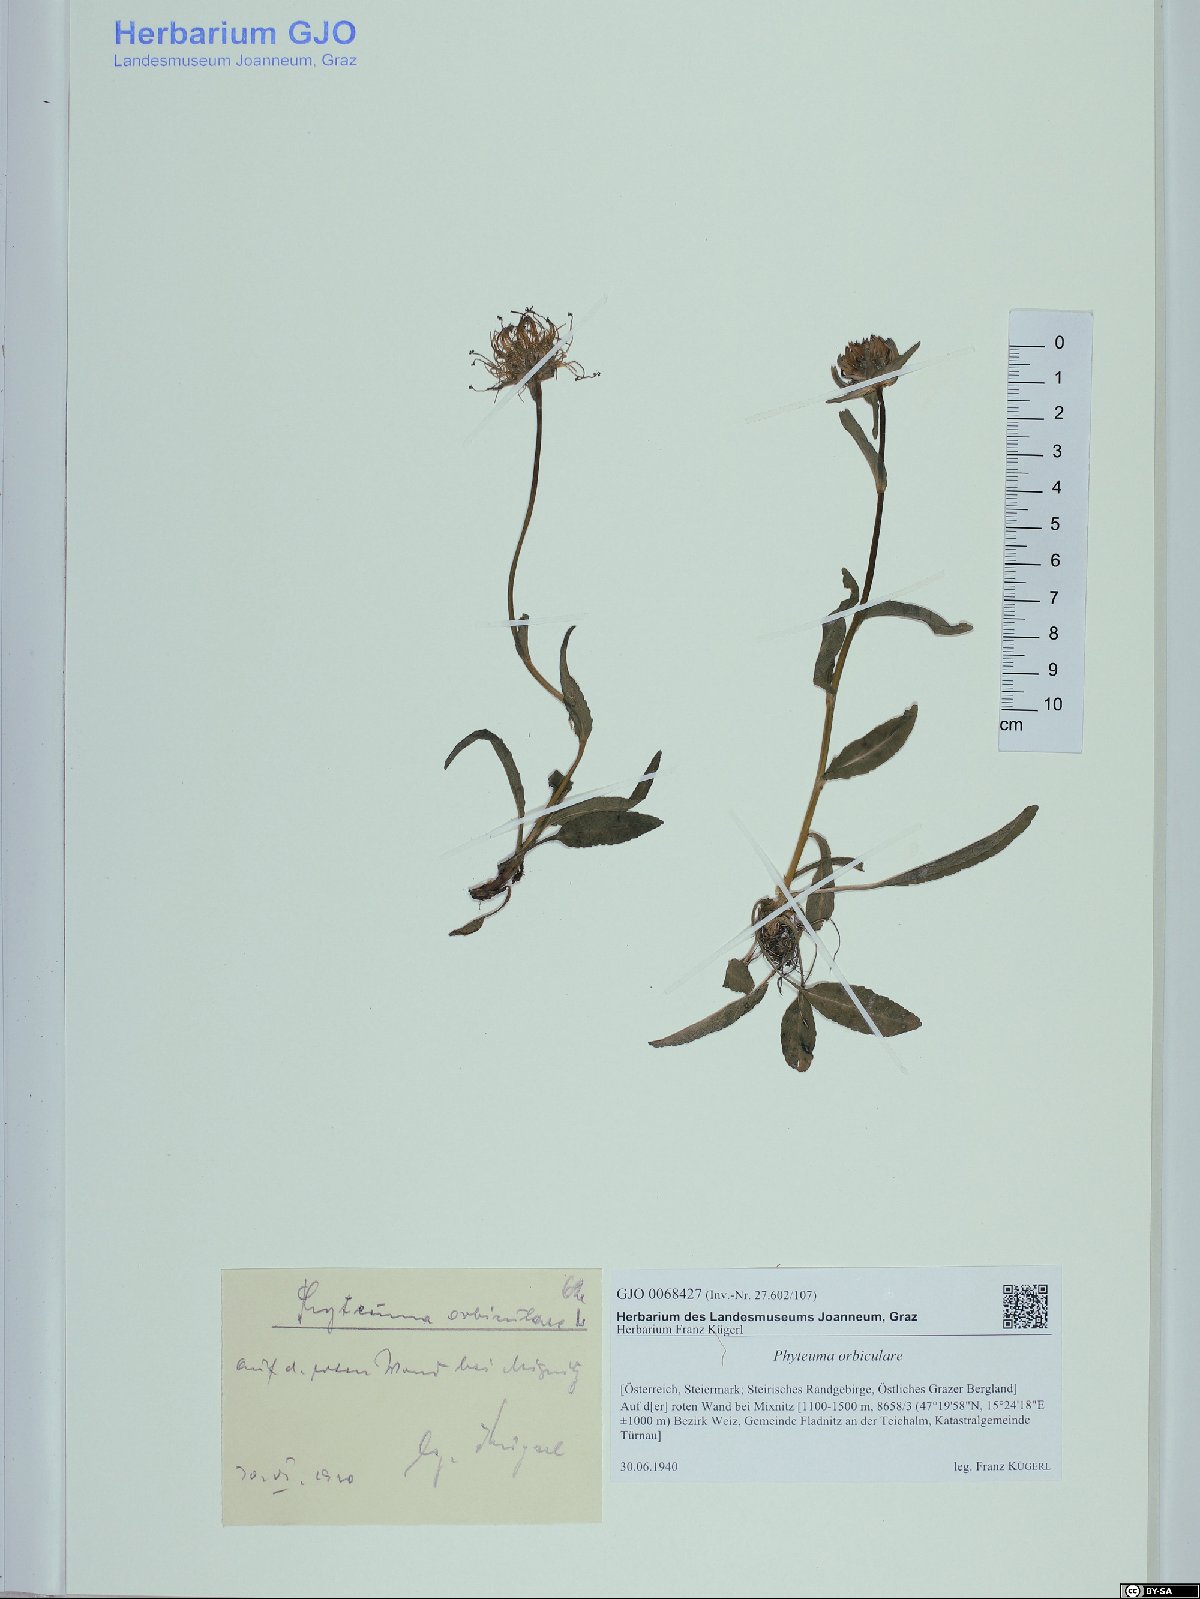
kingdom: Plantae
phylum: Tracheophyta
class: Magnoliopsida
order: Asterales
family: Campanulaceae
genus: Phyteuma
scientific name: Phyteuma orbiculare
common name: Round-headed rampion
